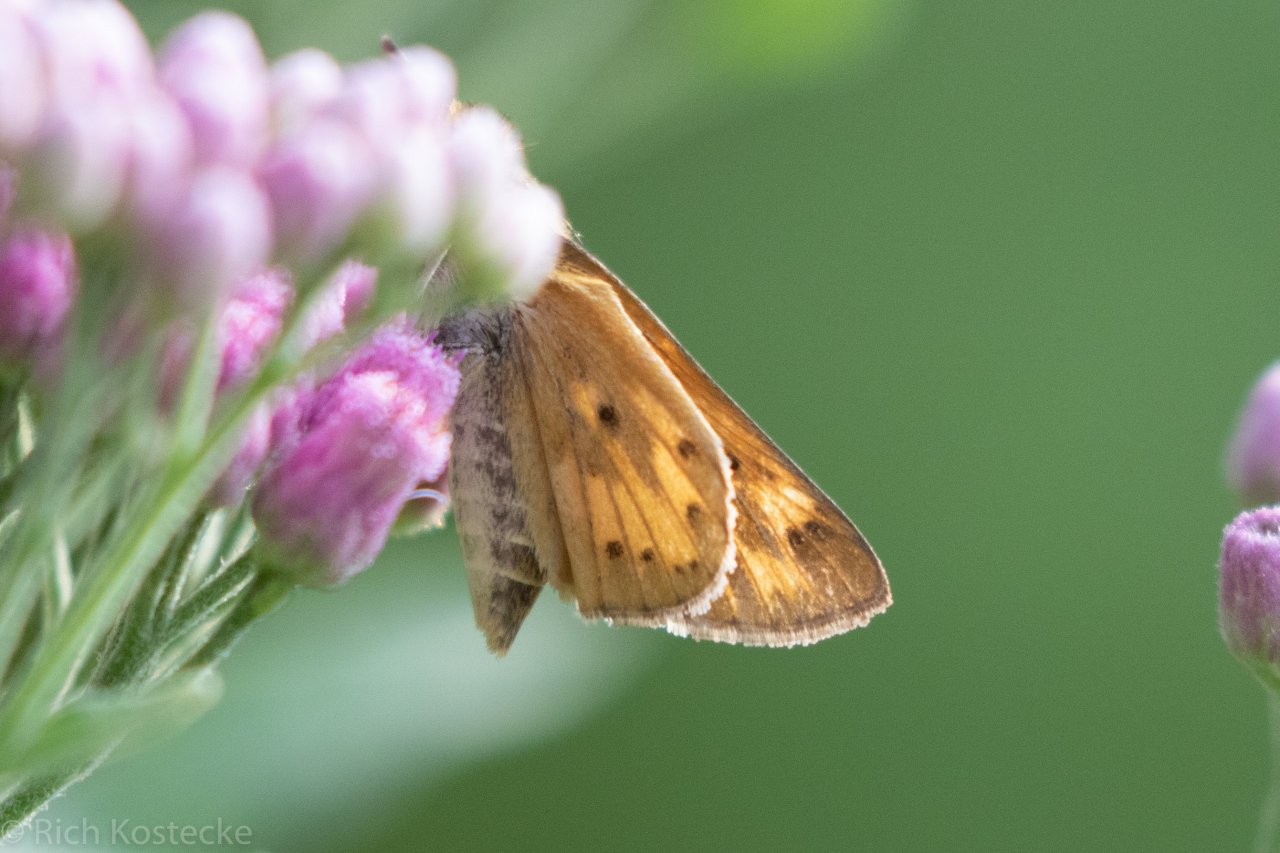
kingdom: Animalia
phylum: Arthropoda
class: Insecta
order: Lepidoptera
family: Hesperiidae
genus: Hylephila
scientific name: Hylephila phyleus
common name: Fiery Skipper
